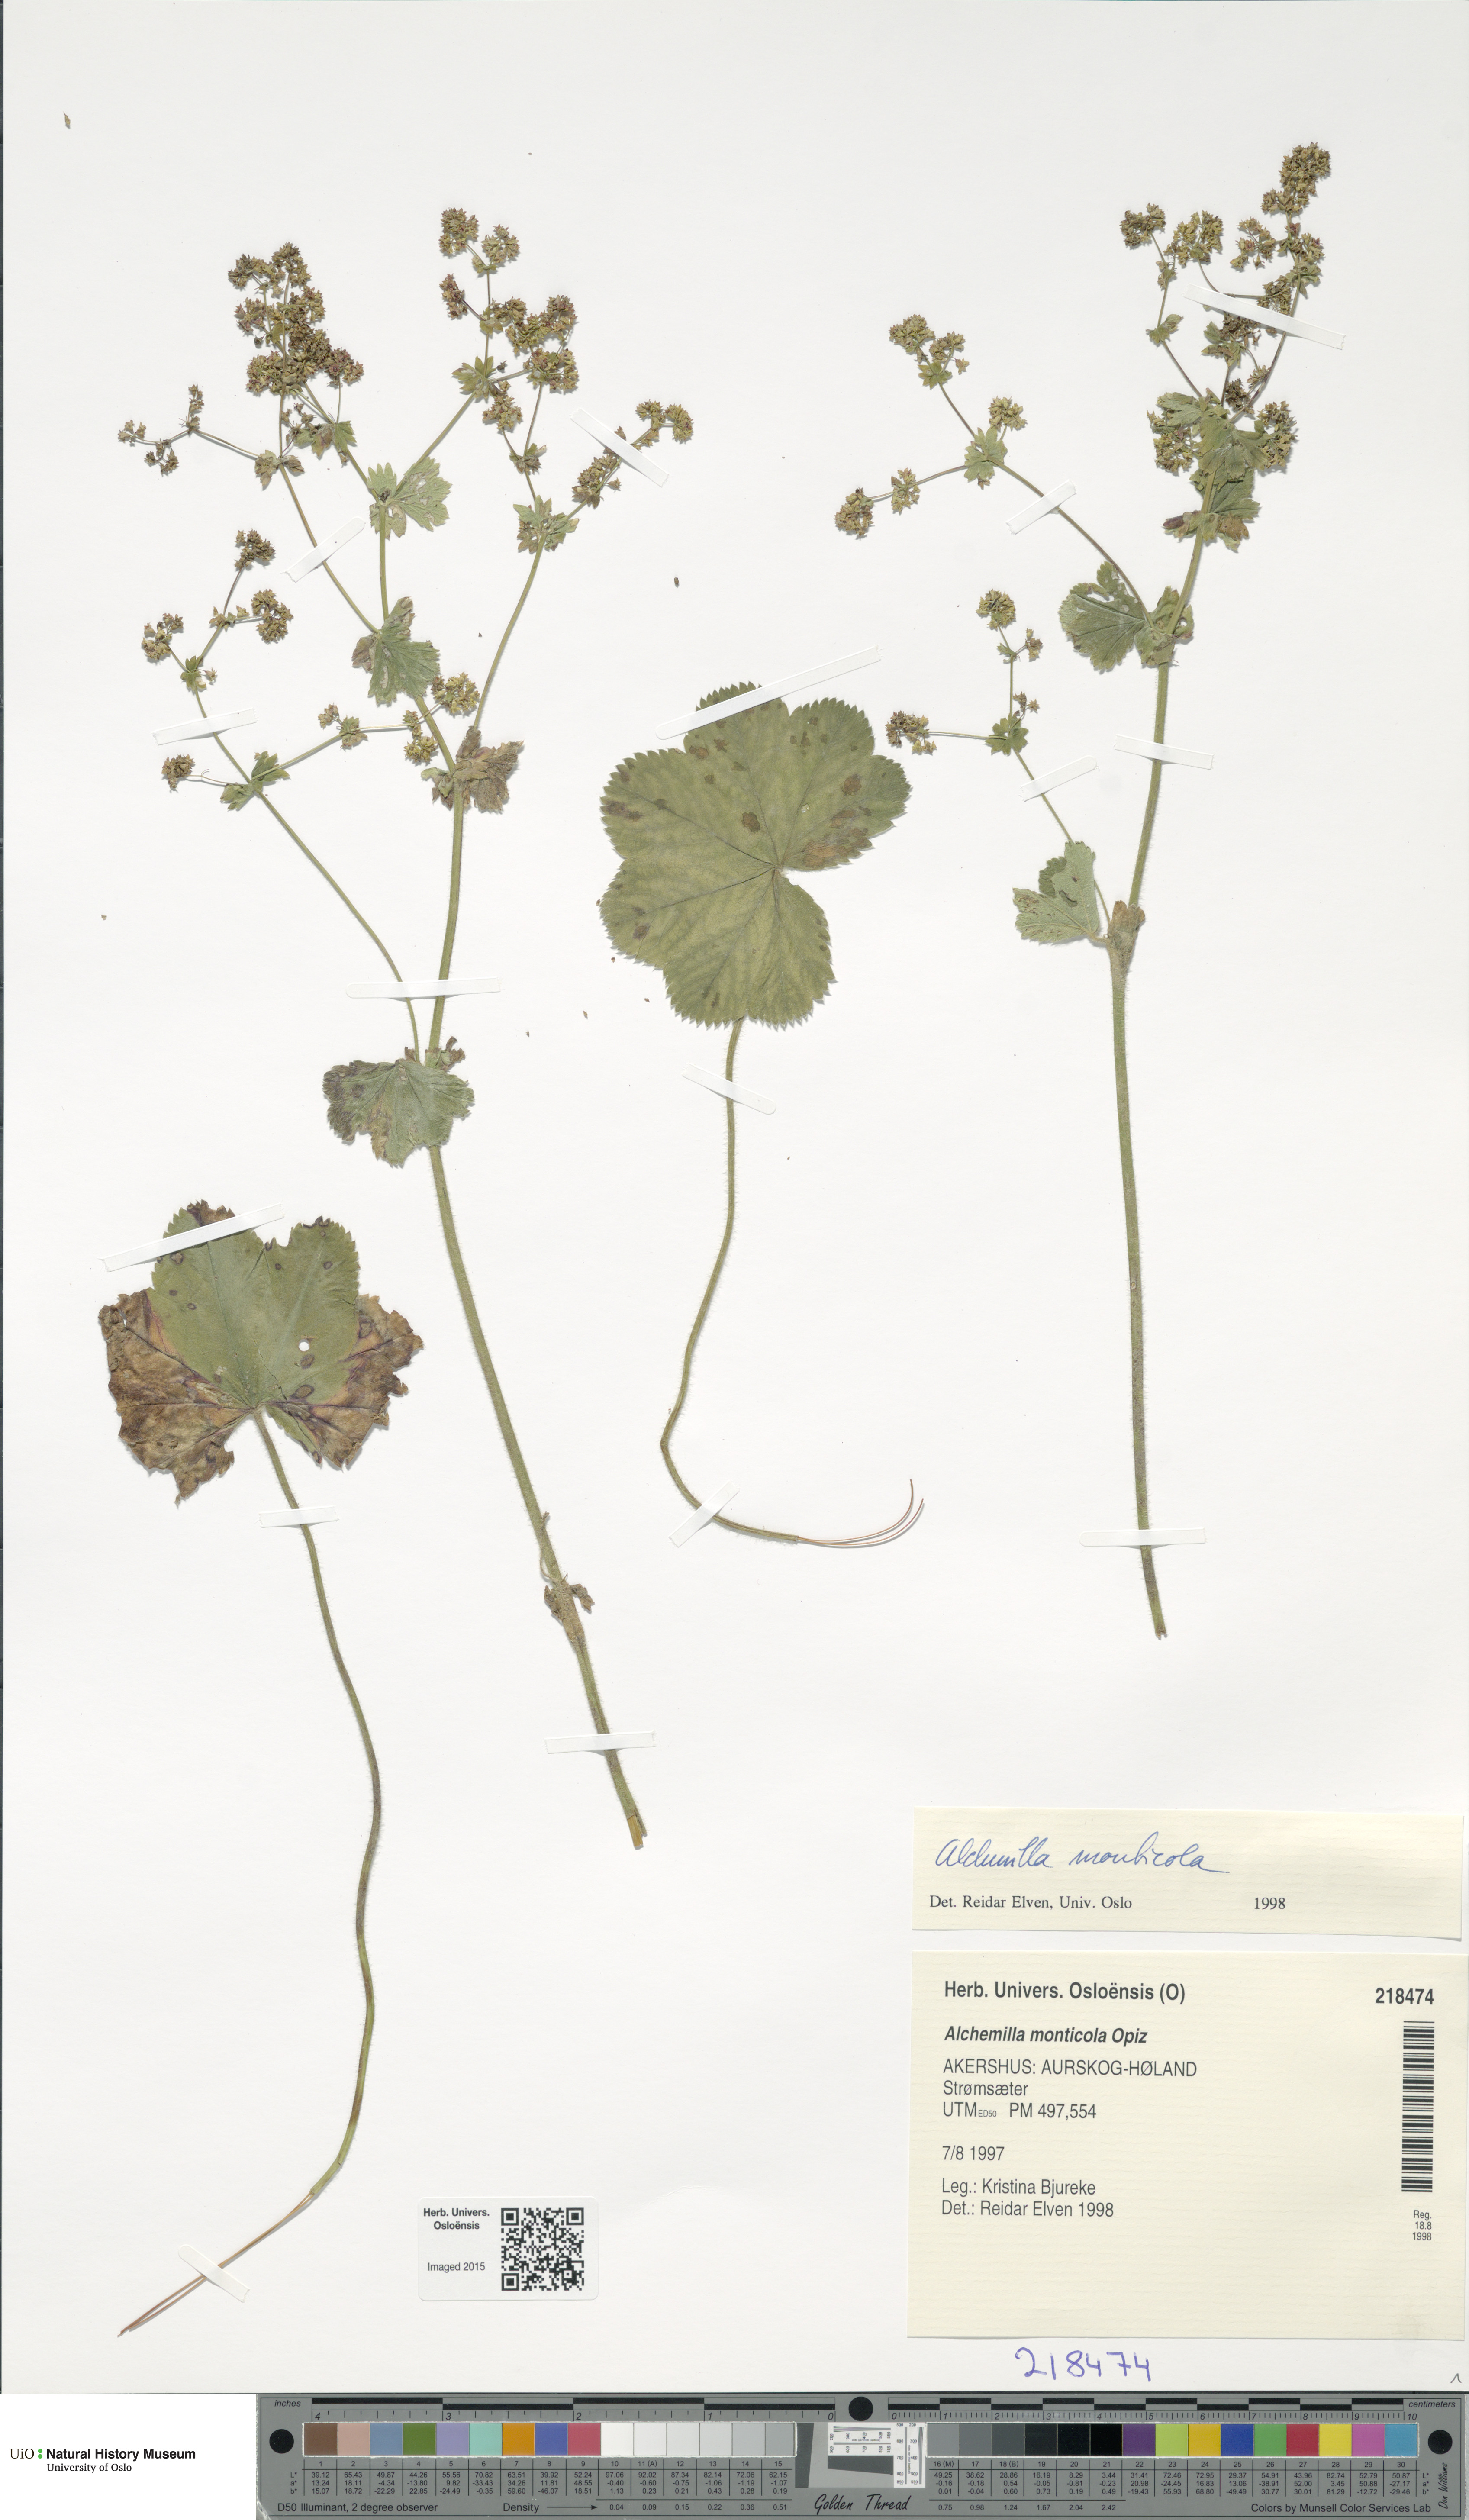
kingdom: Plantae
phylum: Tracheophyta
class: Magnoliopsida
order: Rosales
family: Rosaceae
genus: Alchemilla
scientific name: Alchemilla monticola
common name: Hairy lady's mantle
